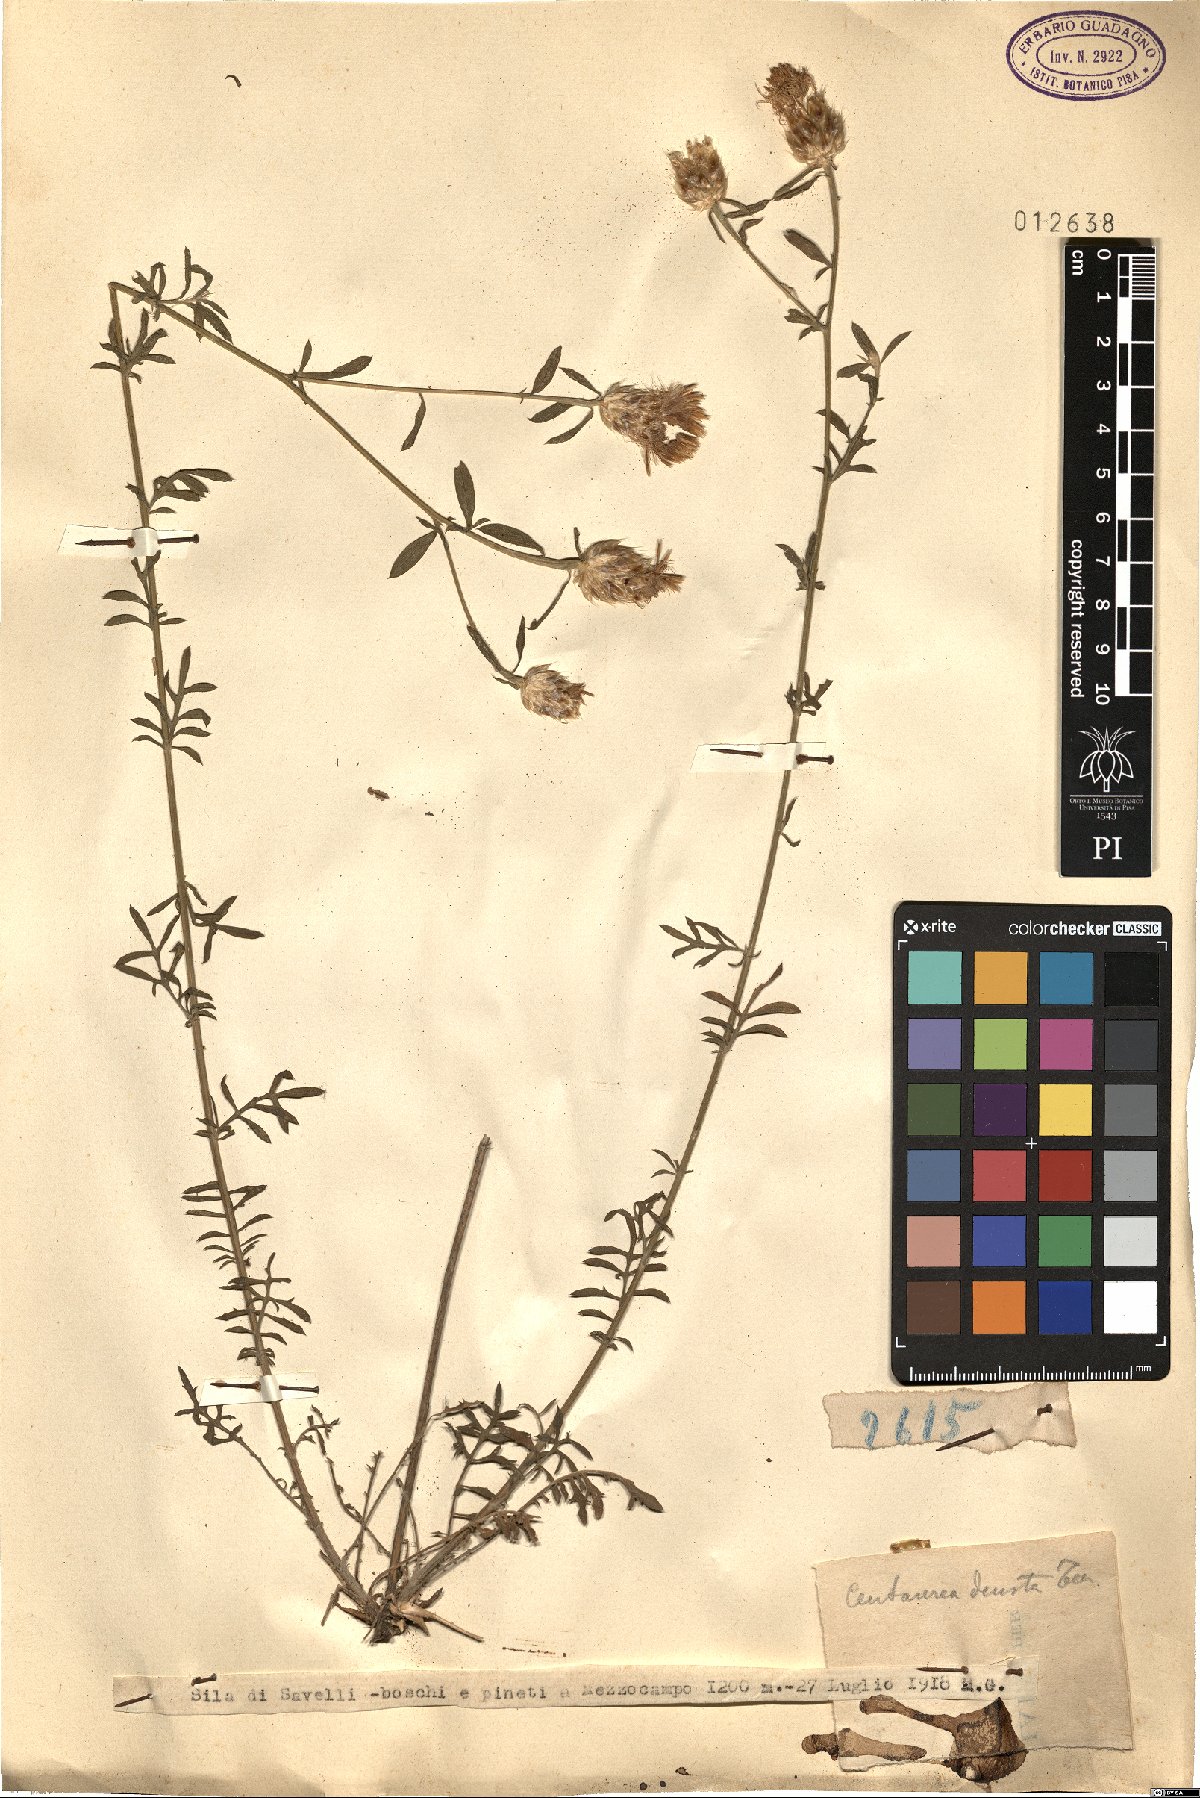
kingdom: Plantae
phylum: Tracheophyta
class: Magnoliopsida
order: Asterales
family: Asteraceae
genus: Centaurea
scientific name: Centaurea deusta
